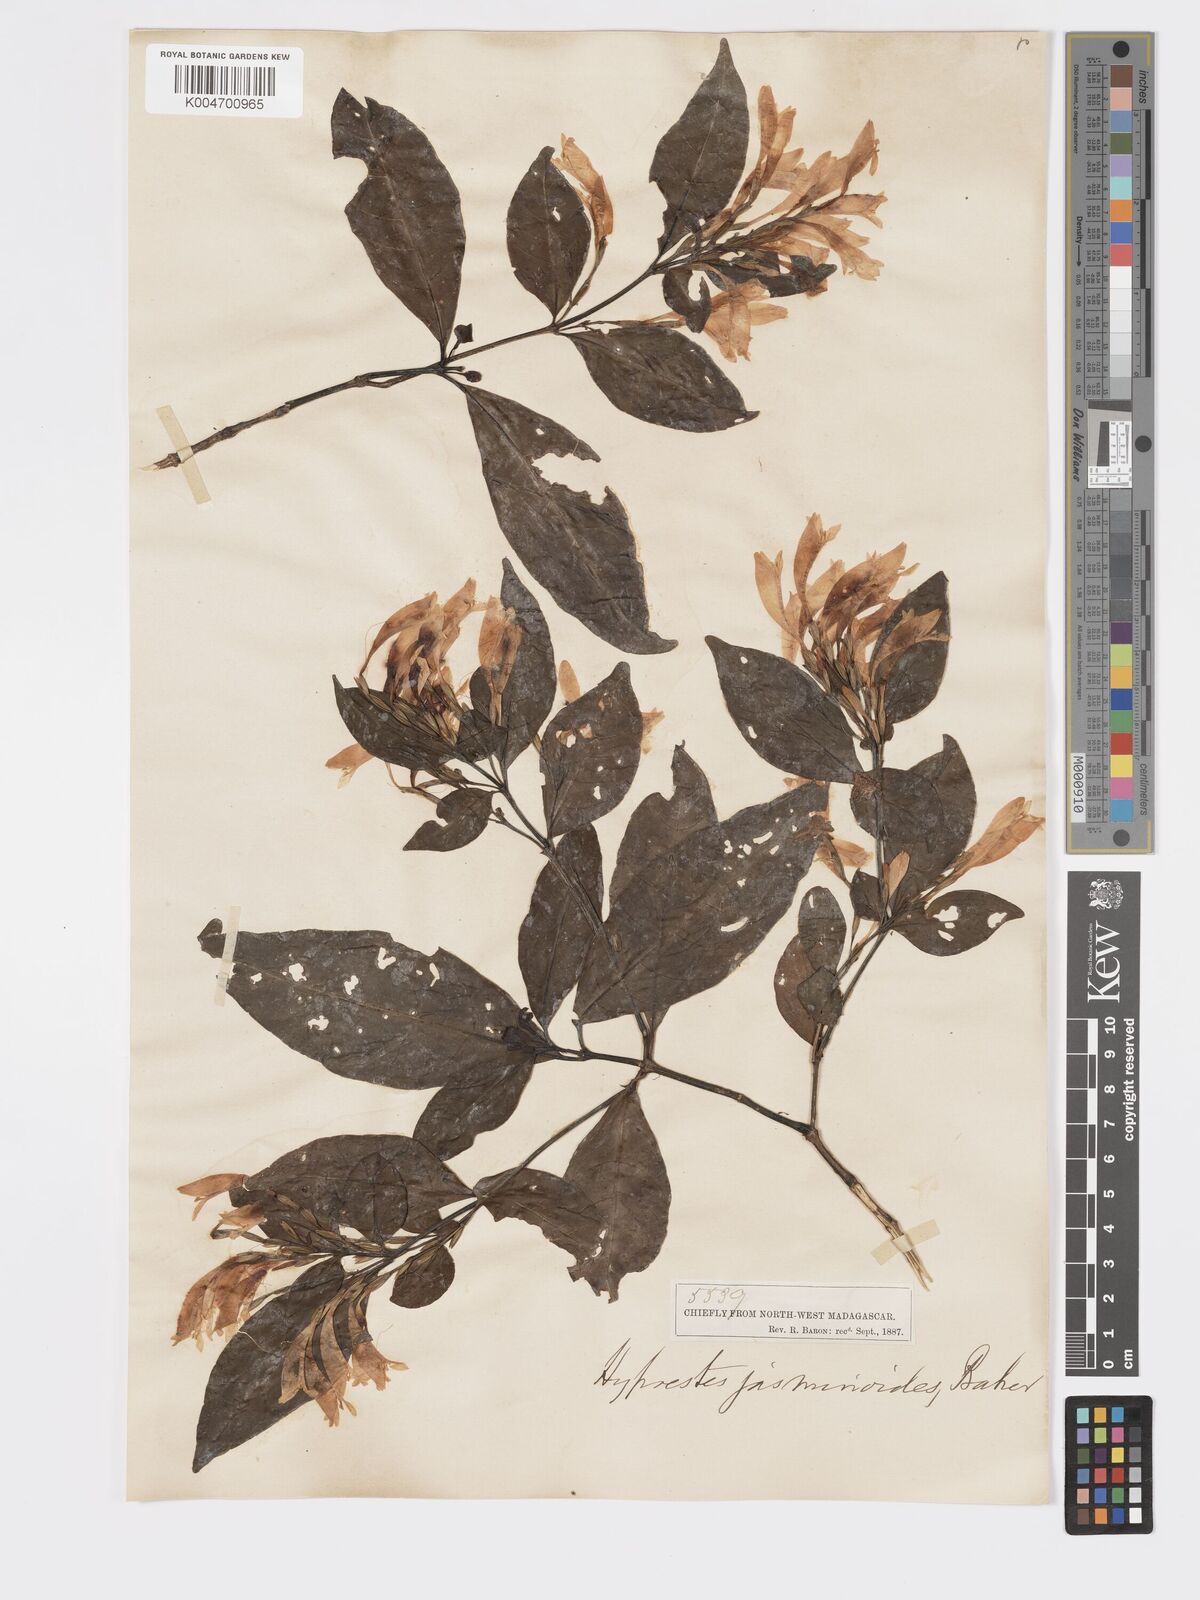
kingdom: Plantae
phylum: Tracheophyta
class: Magnoliopsida
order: Lamiales
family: Acanthaceae
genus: Hypoestes
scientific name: Hypoestes
